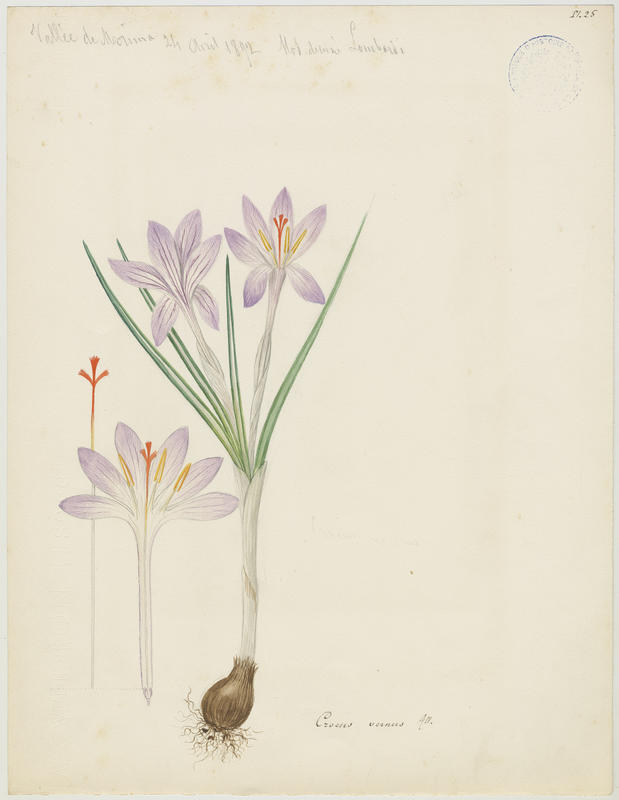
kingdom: Plantae
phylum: Tracheophyta
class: Liliopsida
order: Asparagales
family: Iridaceae
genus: Crocus
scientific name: Crocus vernus
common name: Spring crocus
